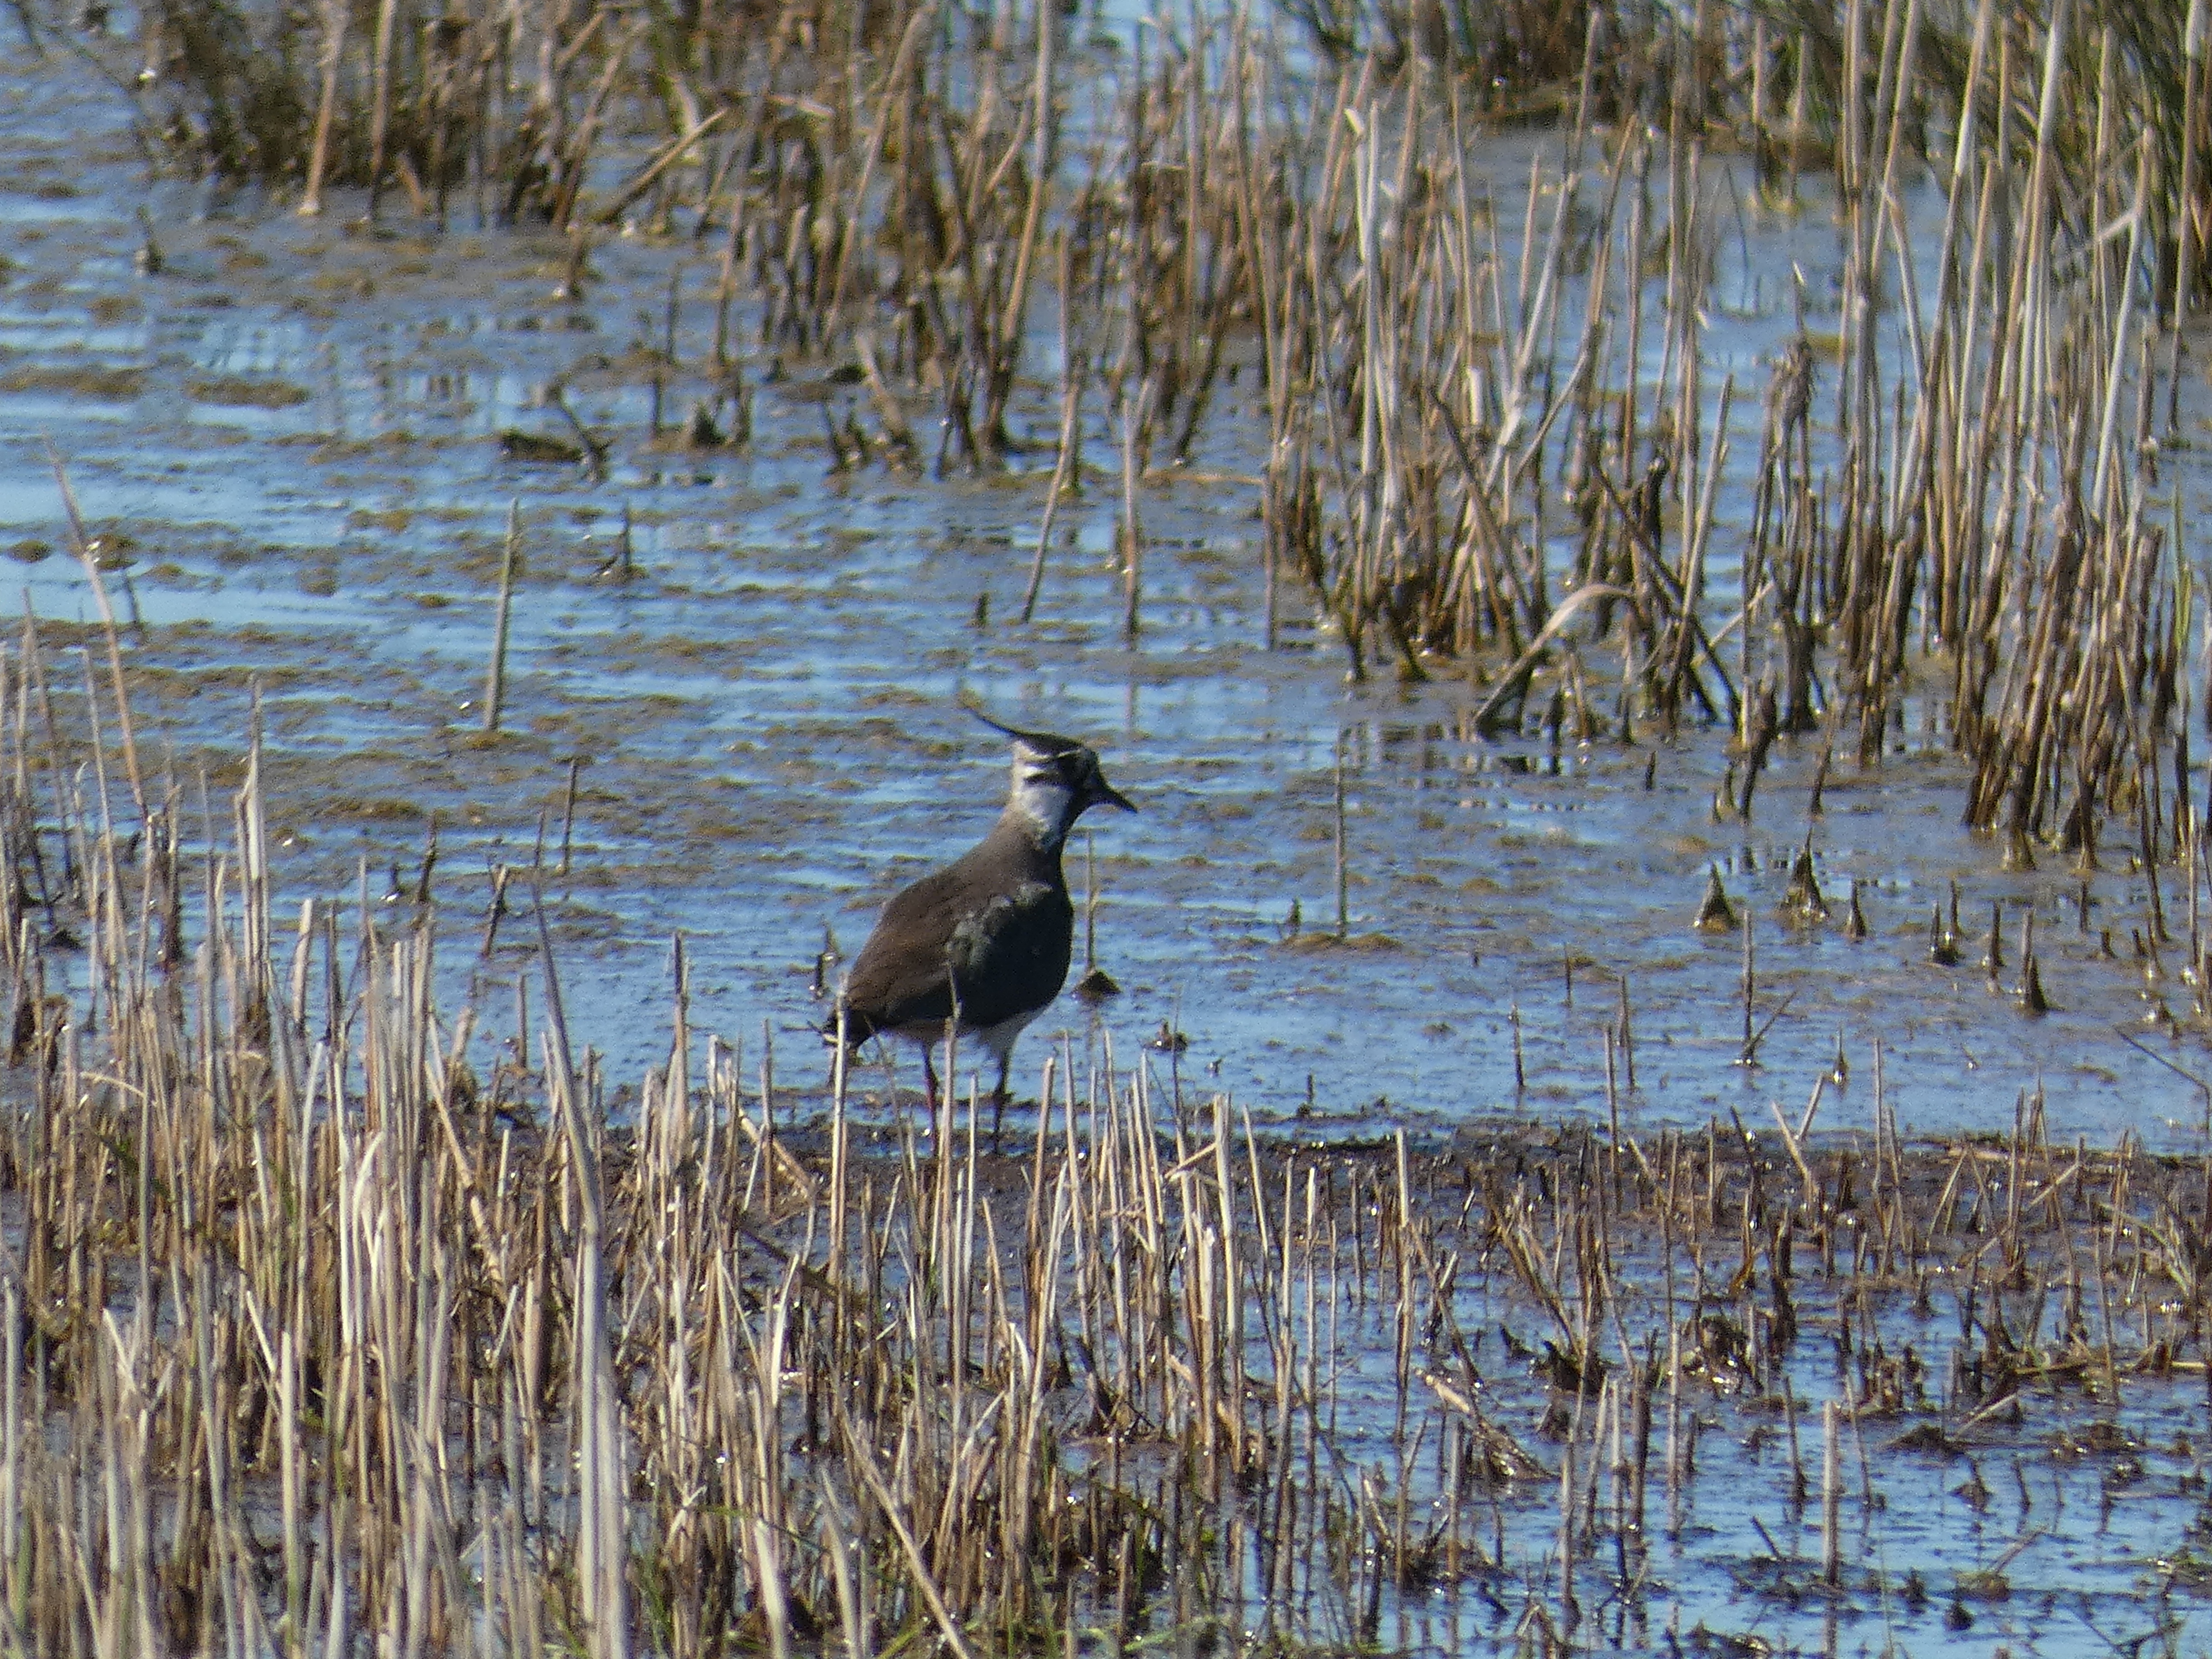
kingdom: Animalia
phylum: Chordata
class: Aves
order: Charadriiformes
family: Charadriidae
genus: Vanellus
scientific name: Vanellus vanellus
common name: Vibe
